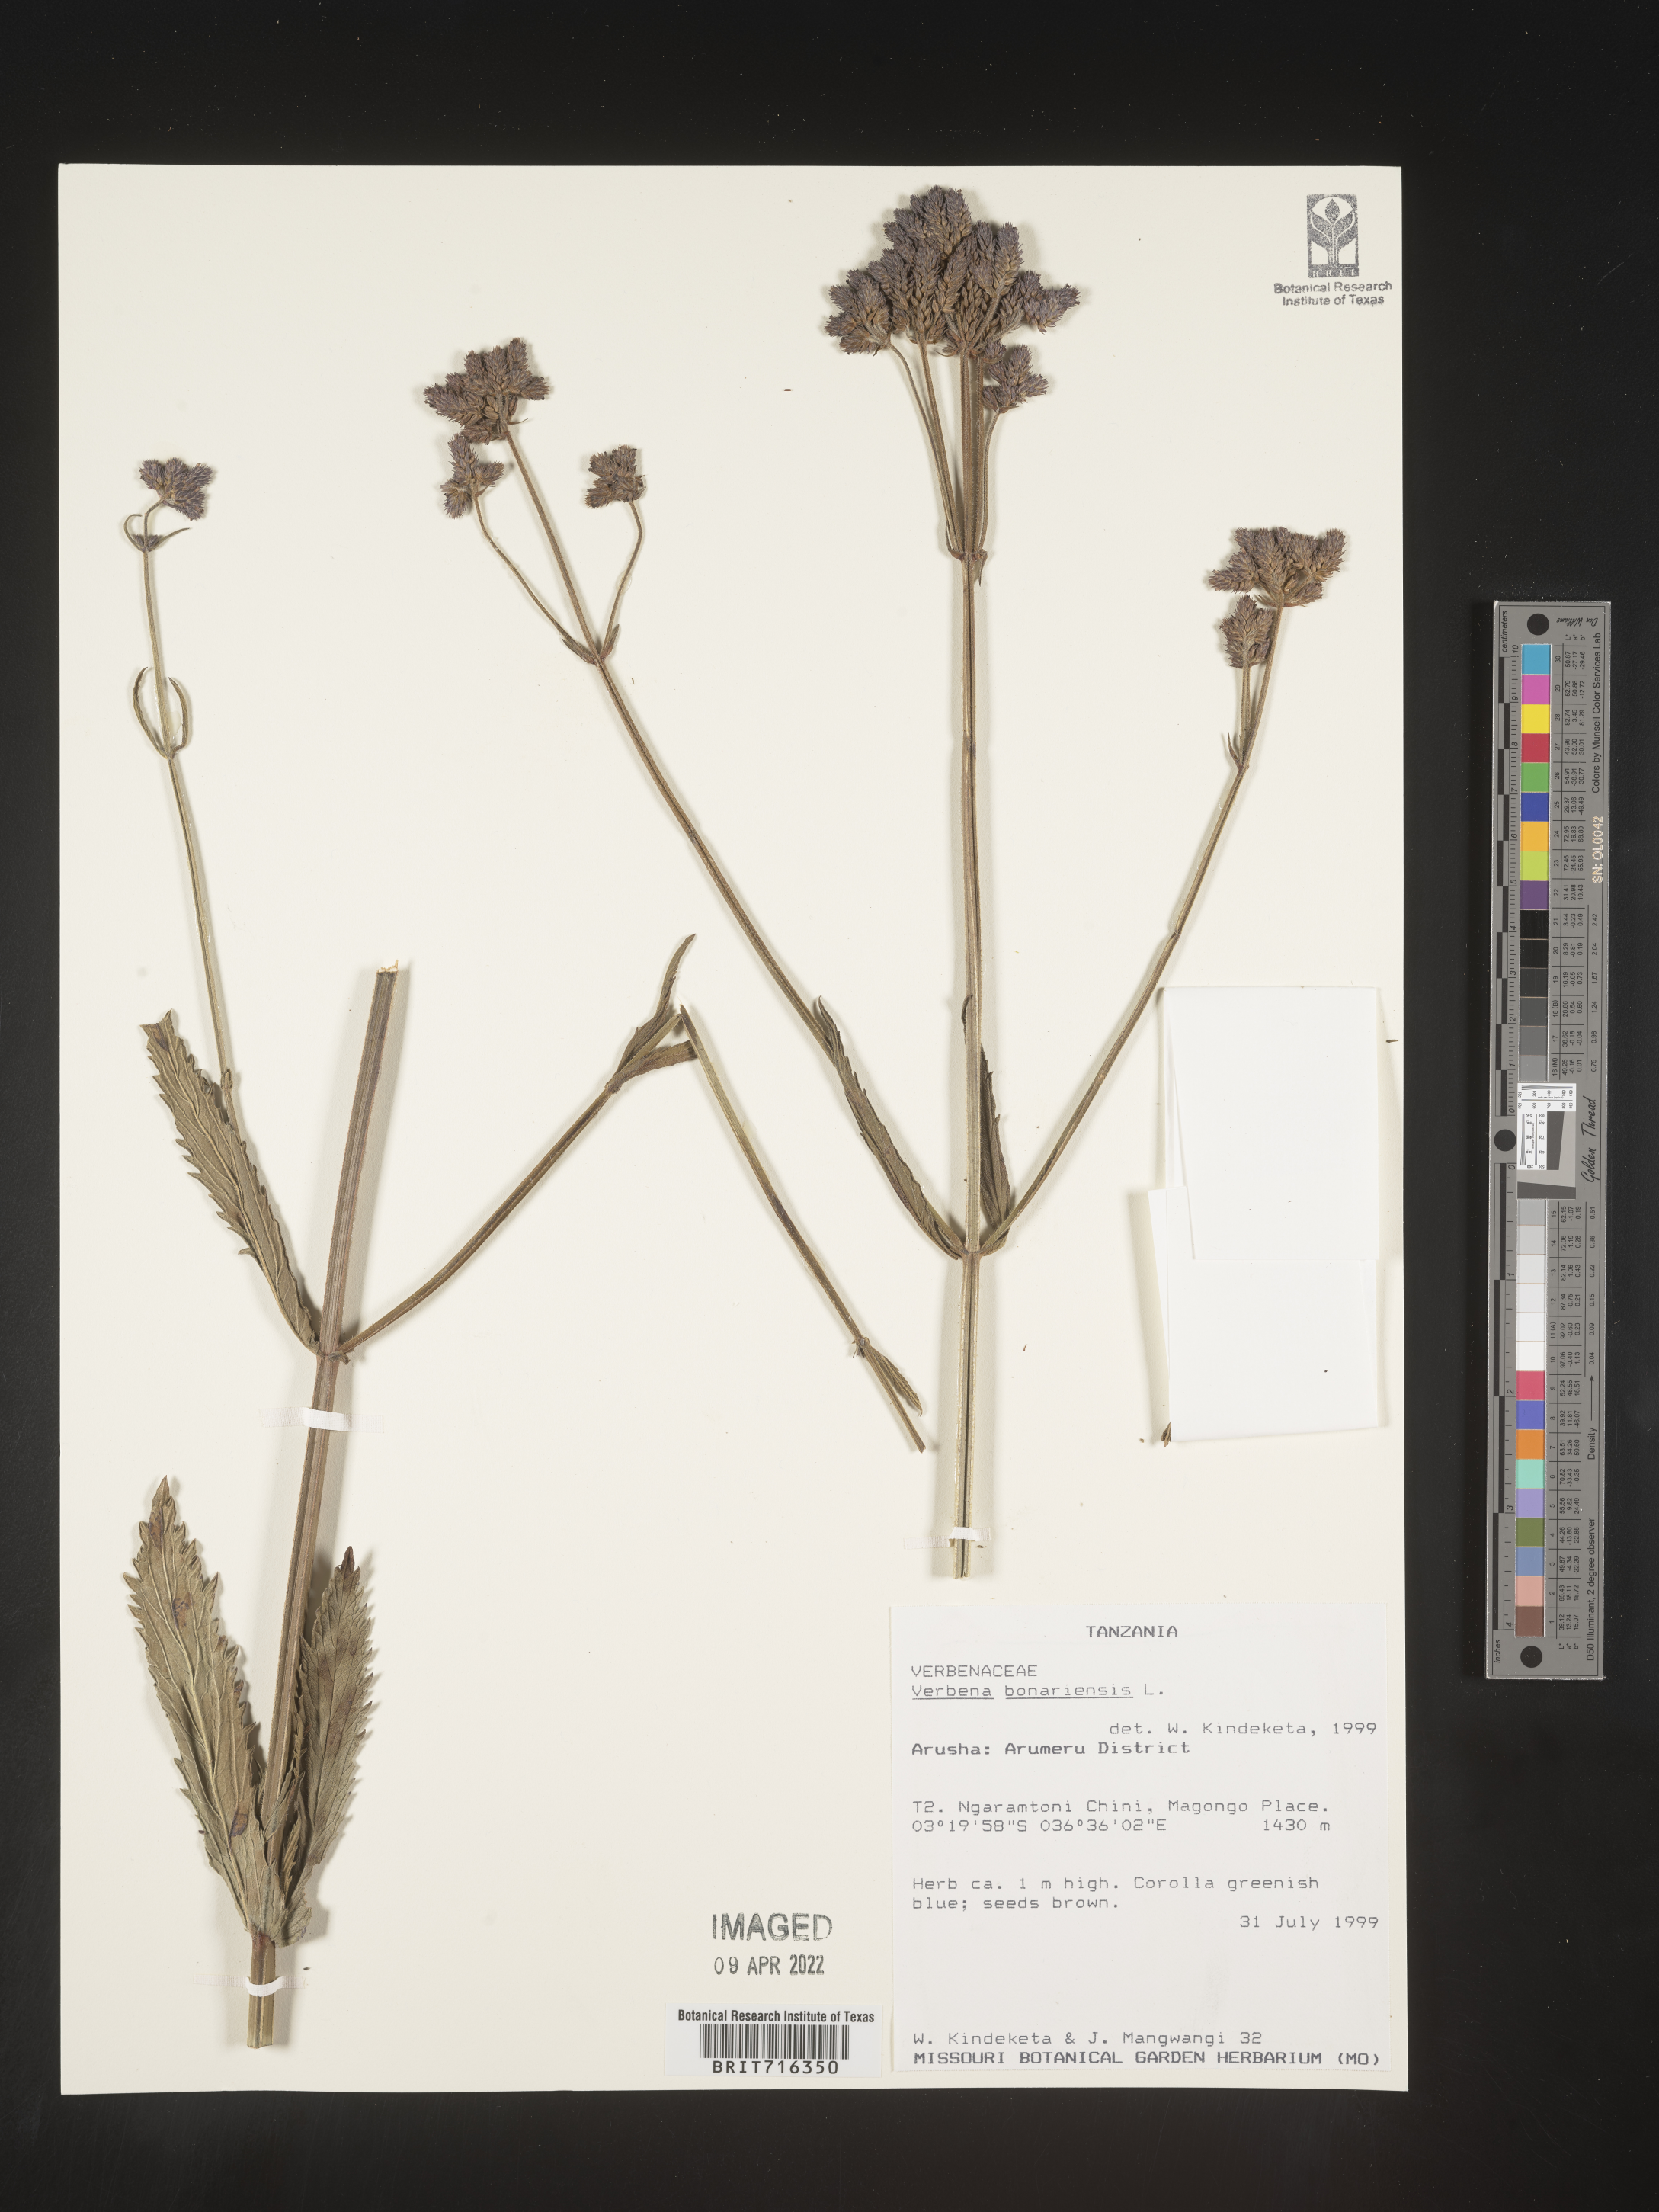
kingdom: Plantae
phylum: Tracheophyta
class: Magnoliopsida
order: Lamiales
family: Verbenaceae
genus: Verbena
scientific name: Verbena
